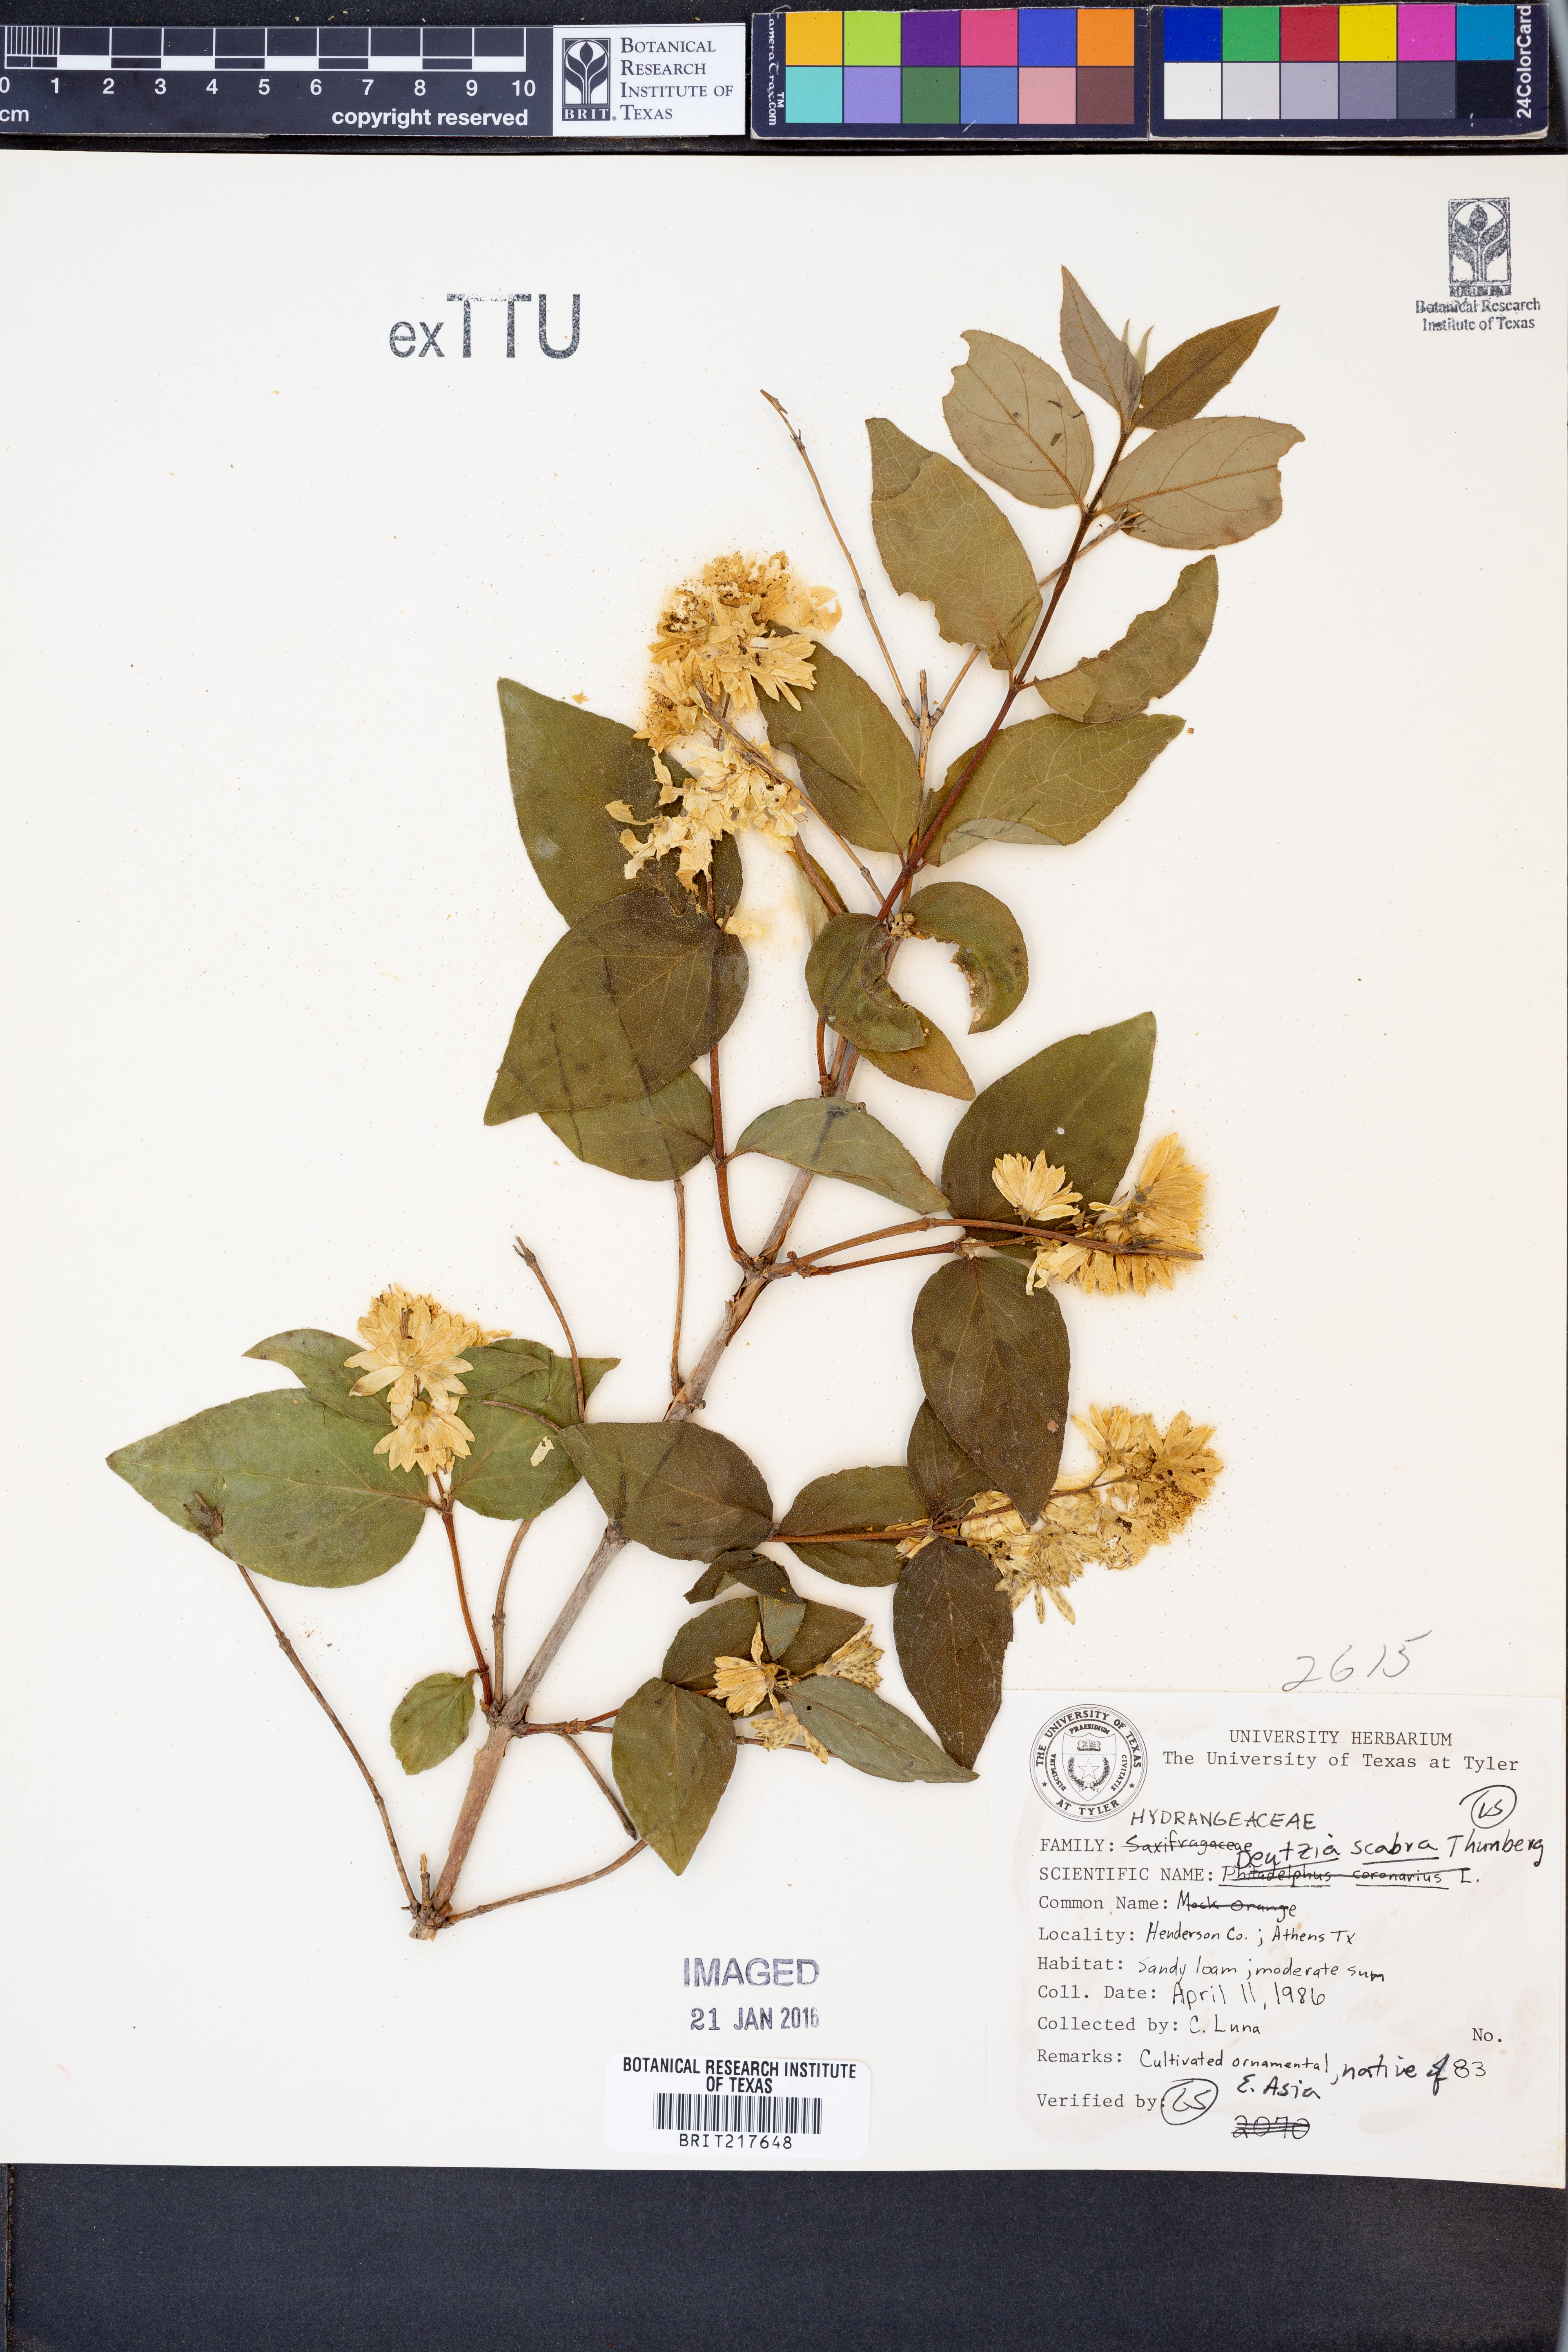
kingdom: Plantae
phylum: Tracheophyta
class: Magnoliopsida
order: Cornales
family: Hydrangeaceae
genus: Deutzia
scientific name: Deutzia scabra
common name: Deutzia
